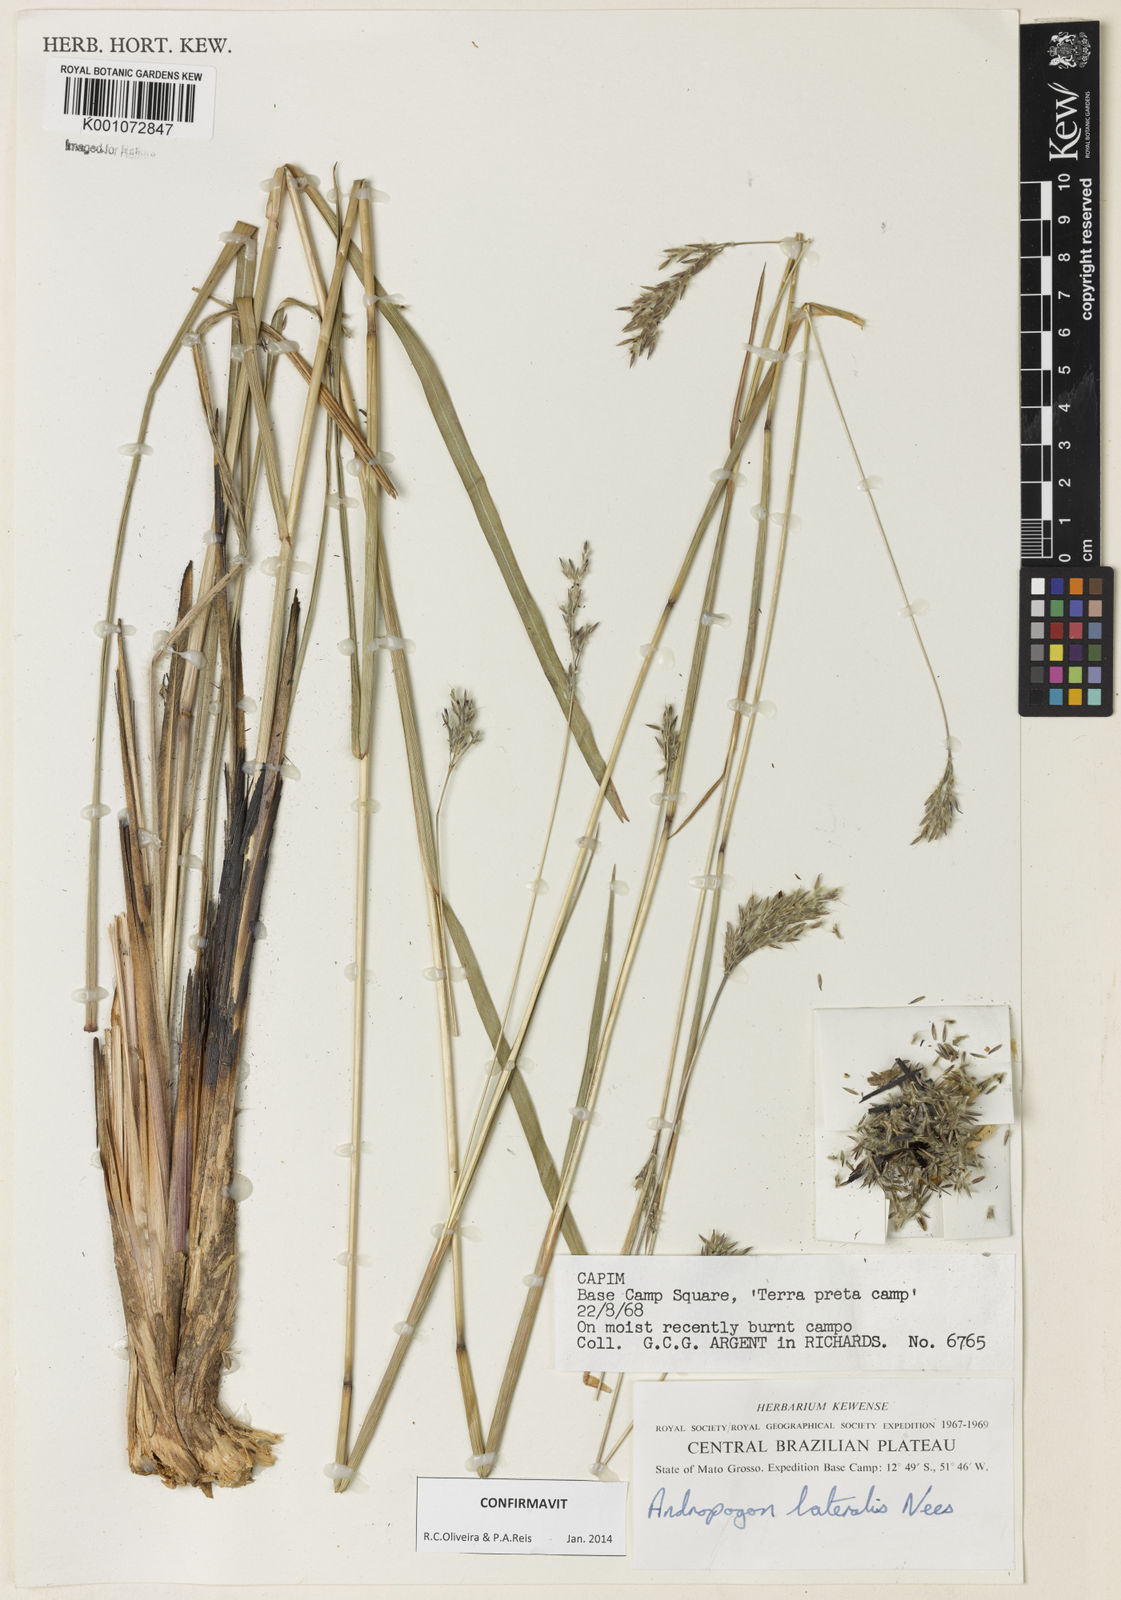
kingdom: Plantae
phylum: Tracheophyta
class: Liliopsida
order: Poales
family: Poaceae
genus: Andropogon
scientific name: Andropogon lateralis
